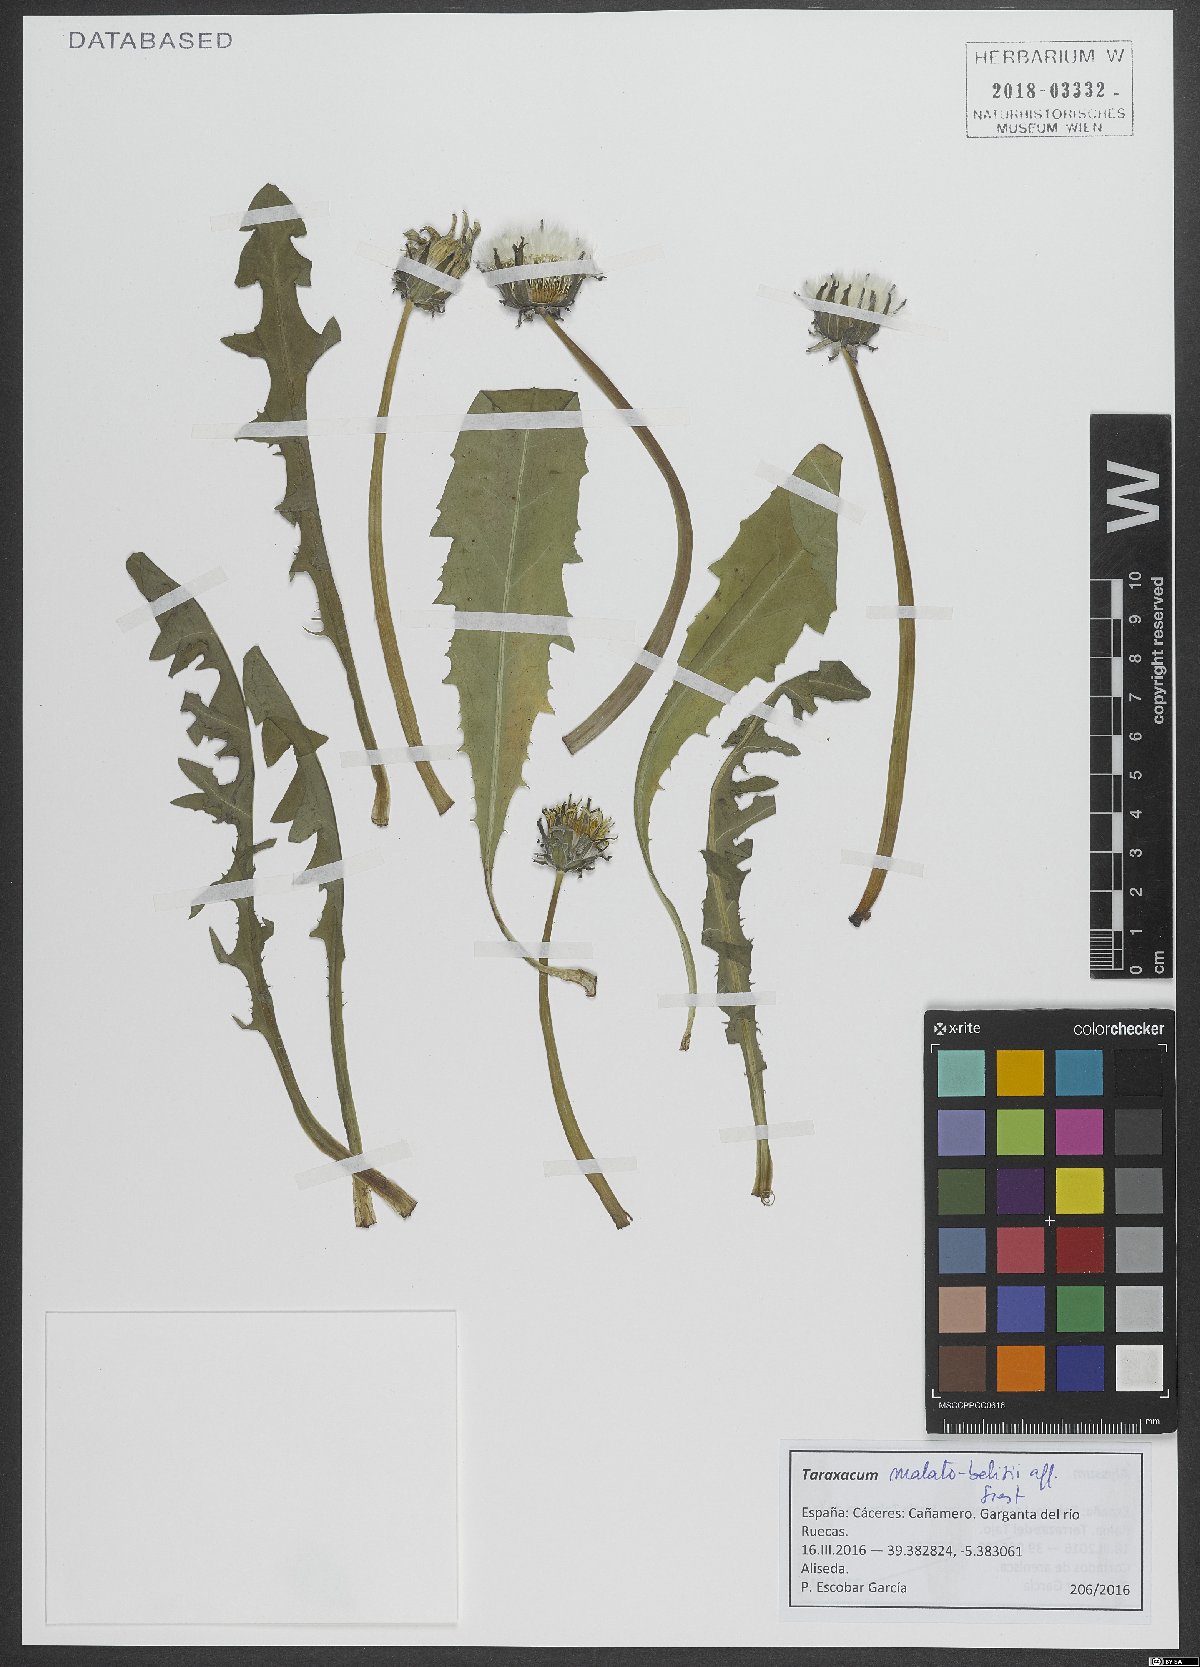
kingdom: Plantae
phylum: Tracheophyta
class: Magnoliopsida
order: Asterales
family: Asteraceae
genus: Taraxacum
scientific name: Taraxacum malato-belizii
